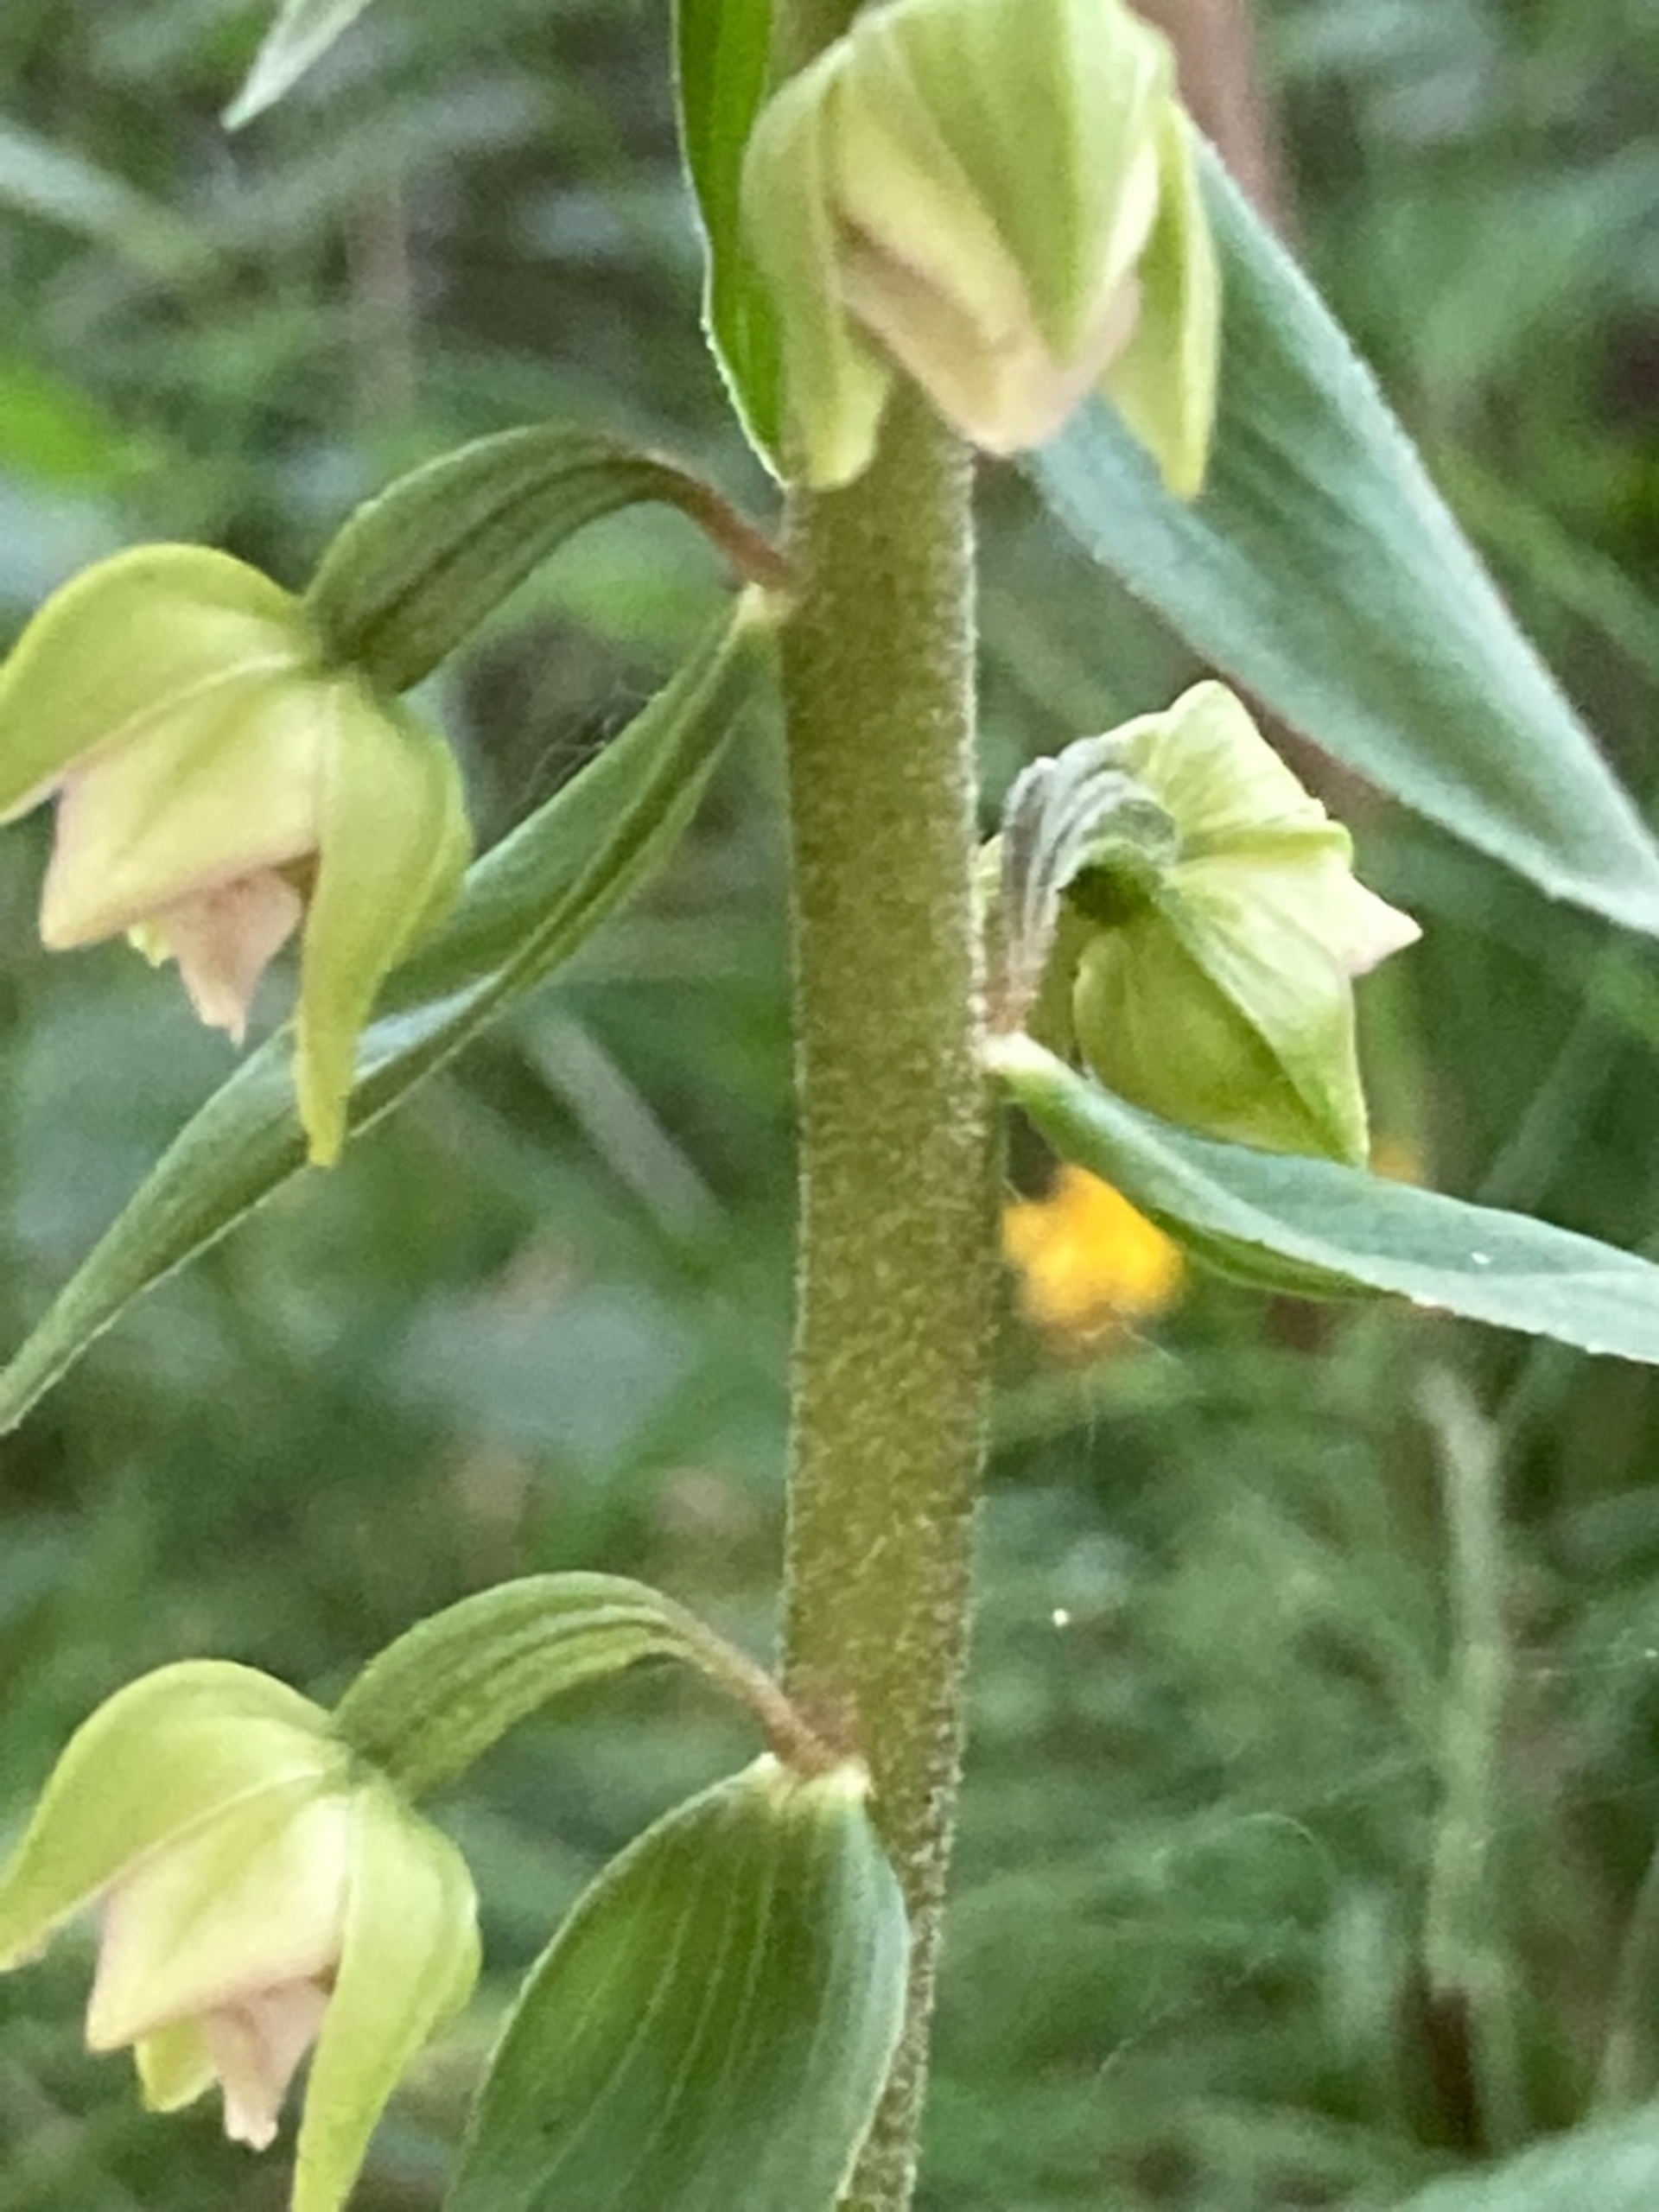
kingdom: Plantae
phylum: Tracheophyta
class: Liliopsida
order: Asparagales
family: Orchidaceae
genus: Epipactis
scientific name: Epipactis helleborine
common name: Skov-hullæbe (underart)
